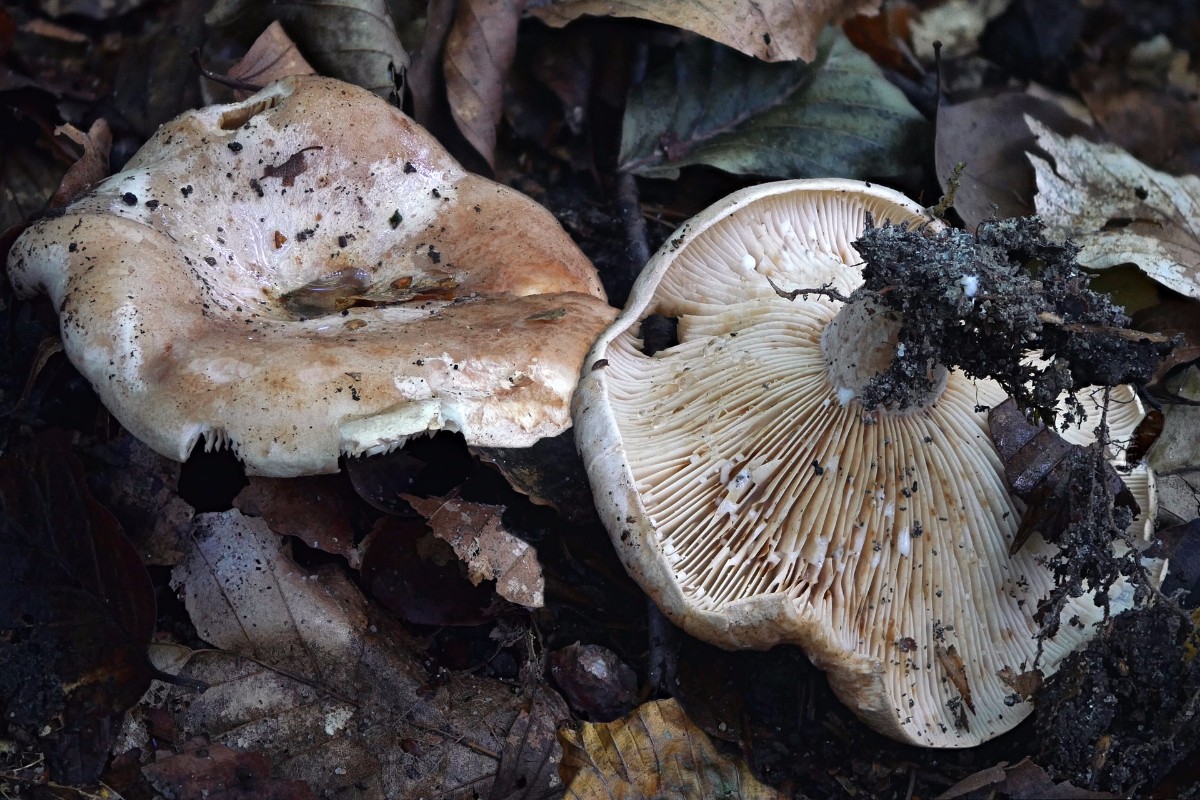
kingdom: Fungi
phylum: Basidiomycota
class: Agaricomycetes
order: Russulales
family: Russulaceae
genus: Lactarius
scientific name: Lactarius pallidus
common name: bleg mælkehat
